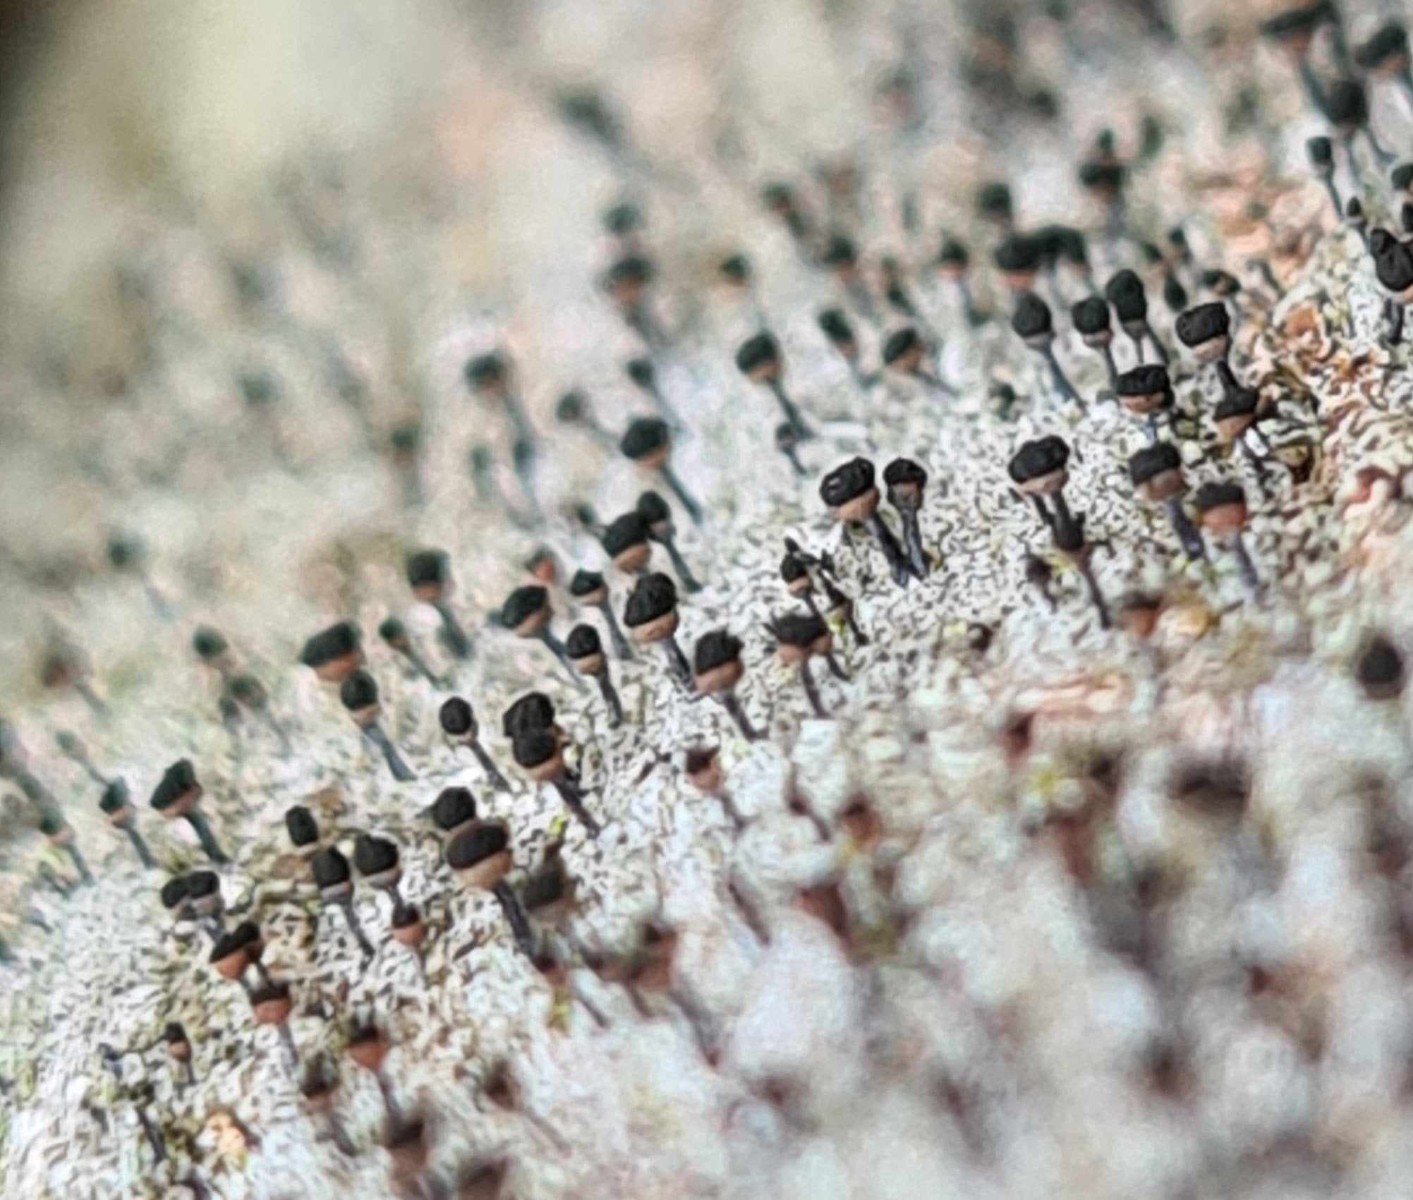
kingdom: Fungi
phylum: Ascomycota
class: Lecanoromycetes
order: Caliciales
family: Caliciaceae
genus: Calicium
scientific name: Calicium salicinum
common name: persoons nålelav
